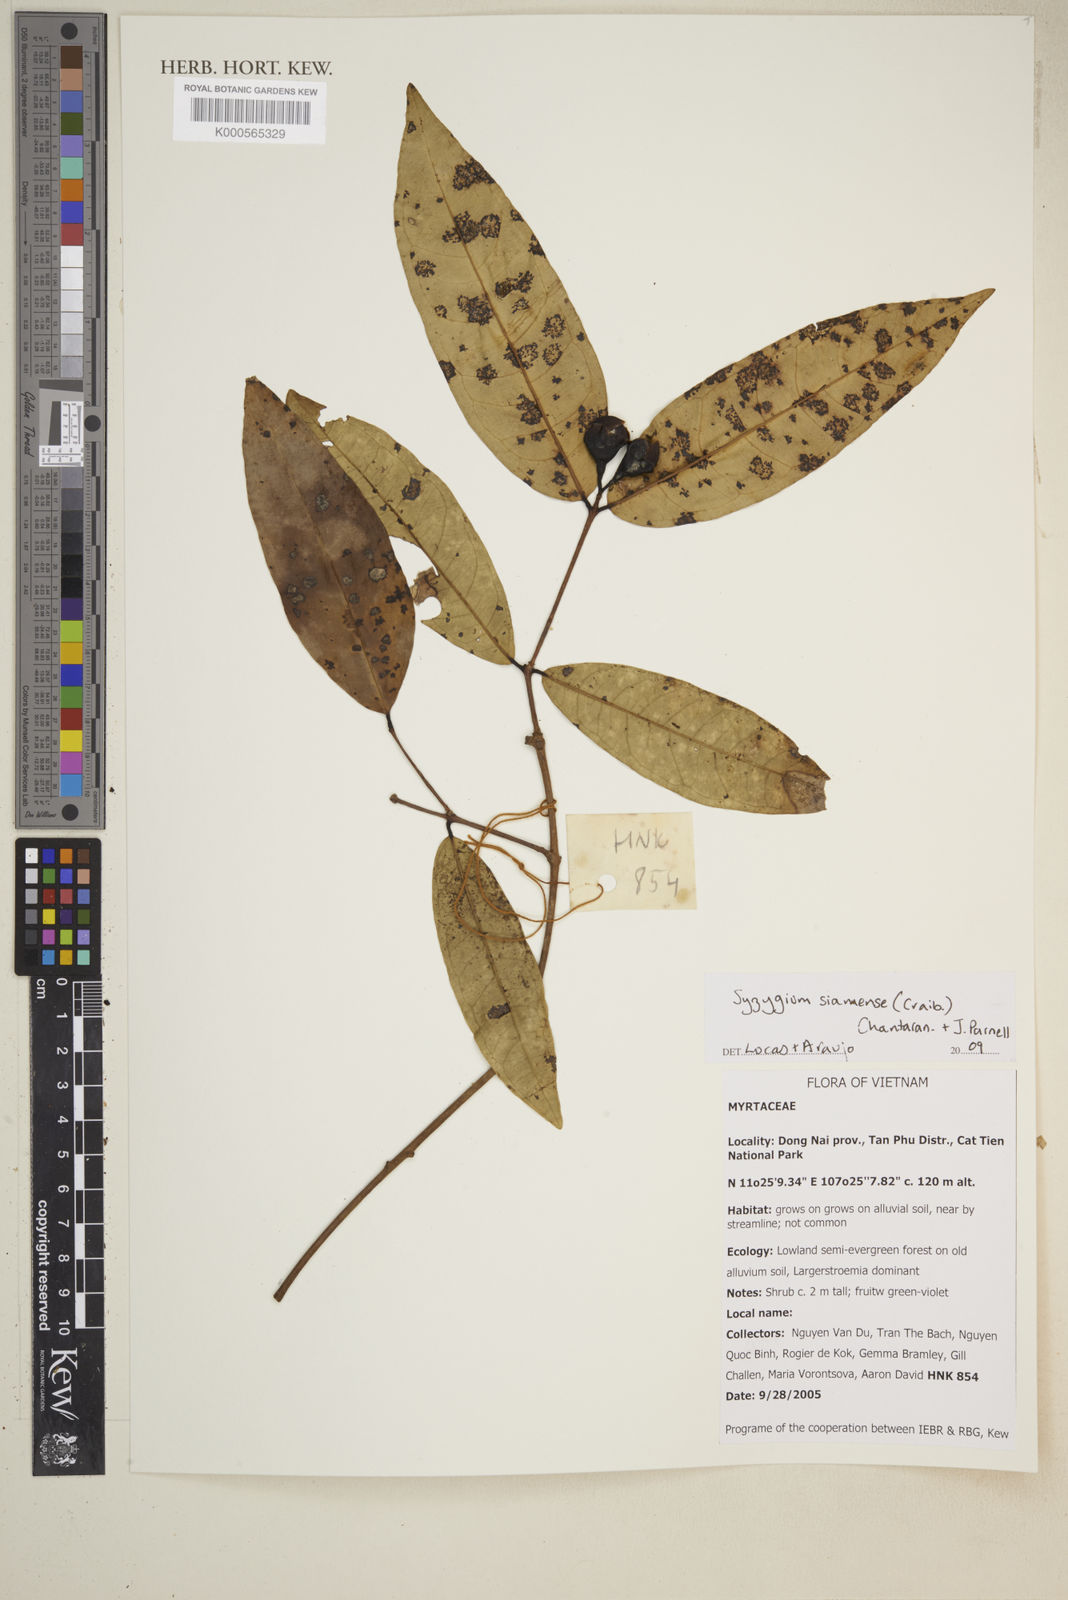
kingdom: Plantae
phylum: Tracheophyta
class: Magnoliopsida
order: Myrtales
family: Myrtaceae
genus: Syzygium
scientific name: Syzygium siamense
